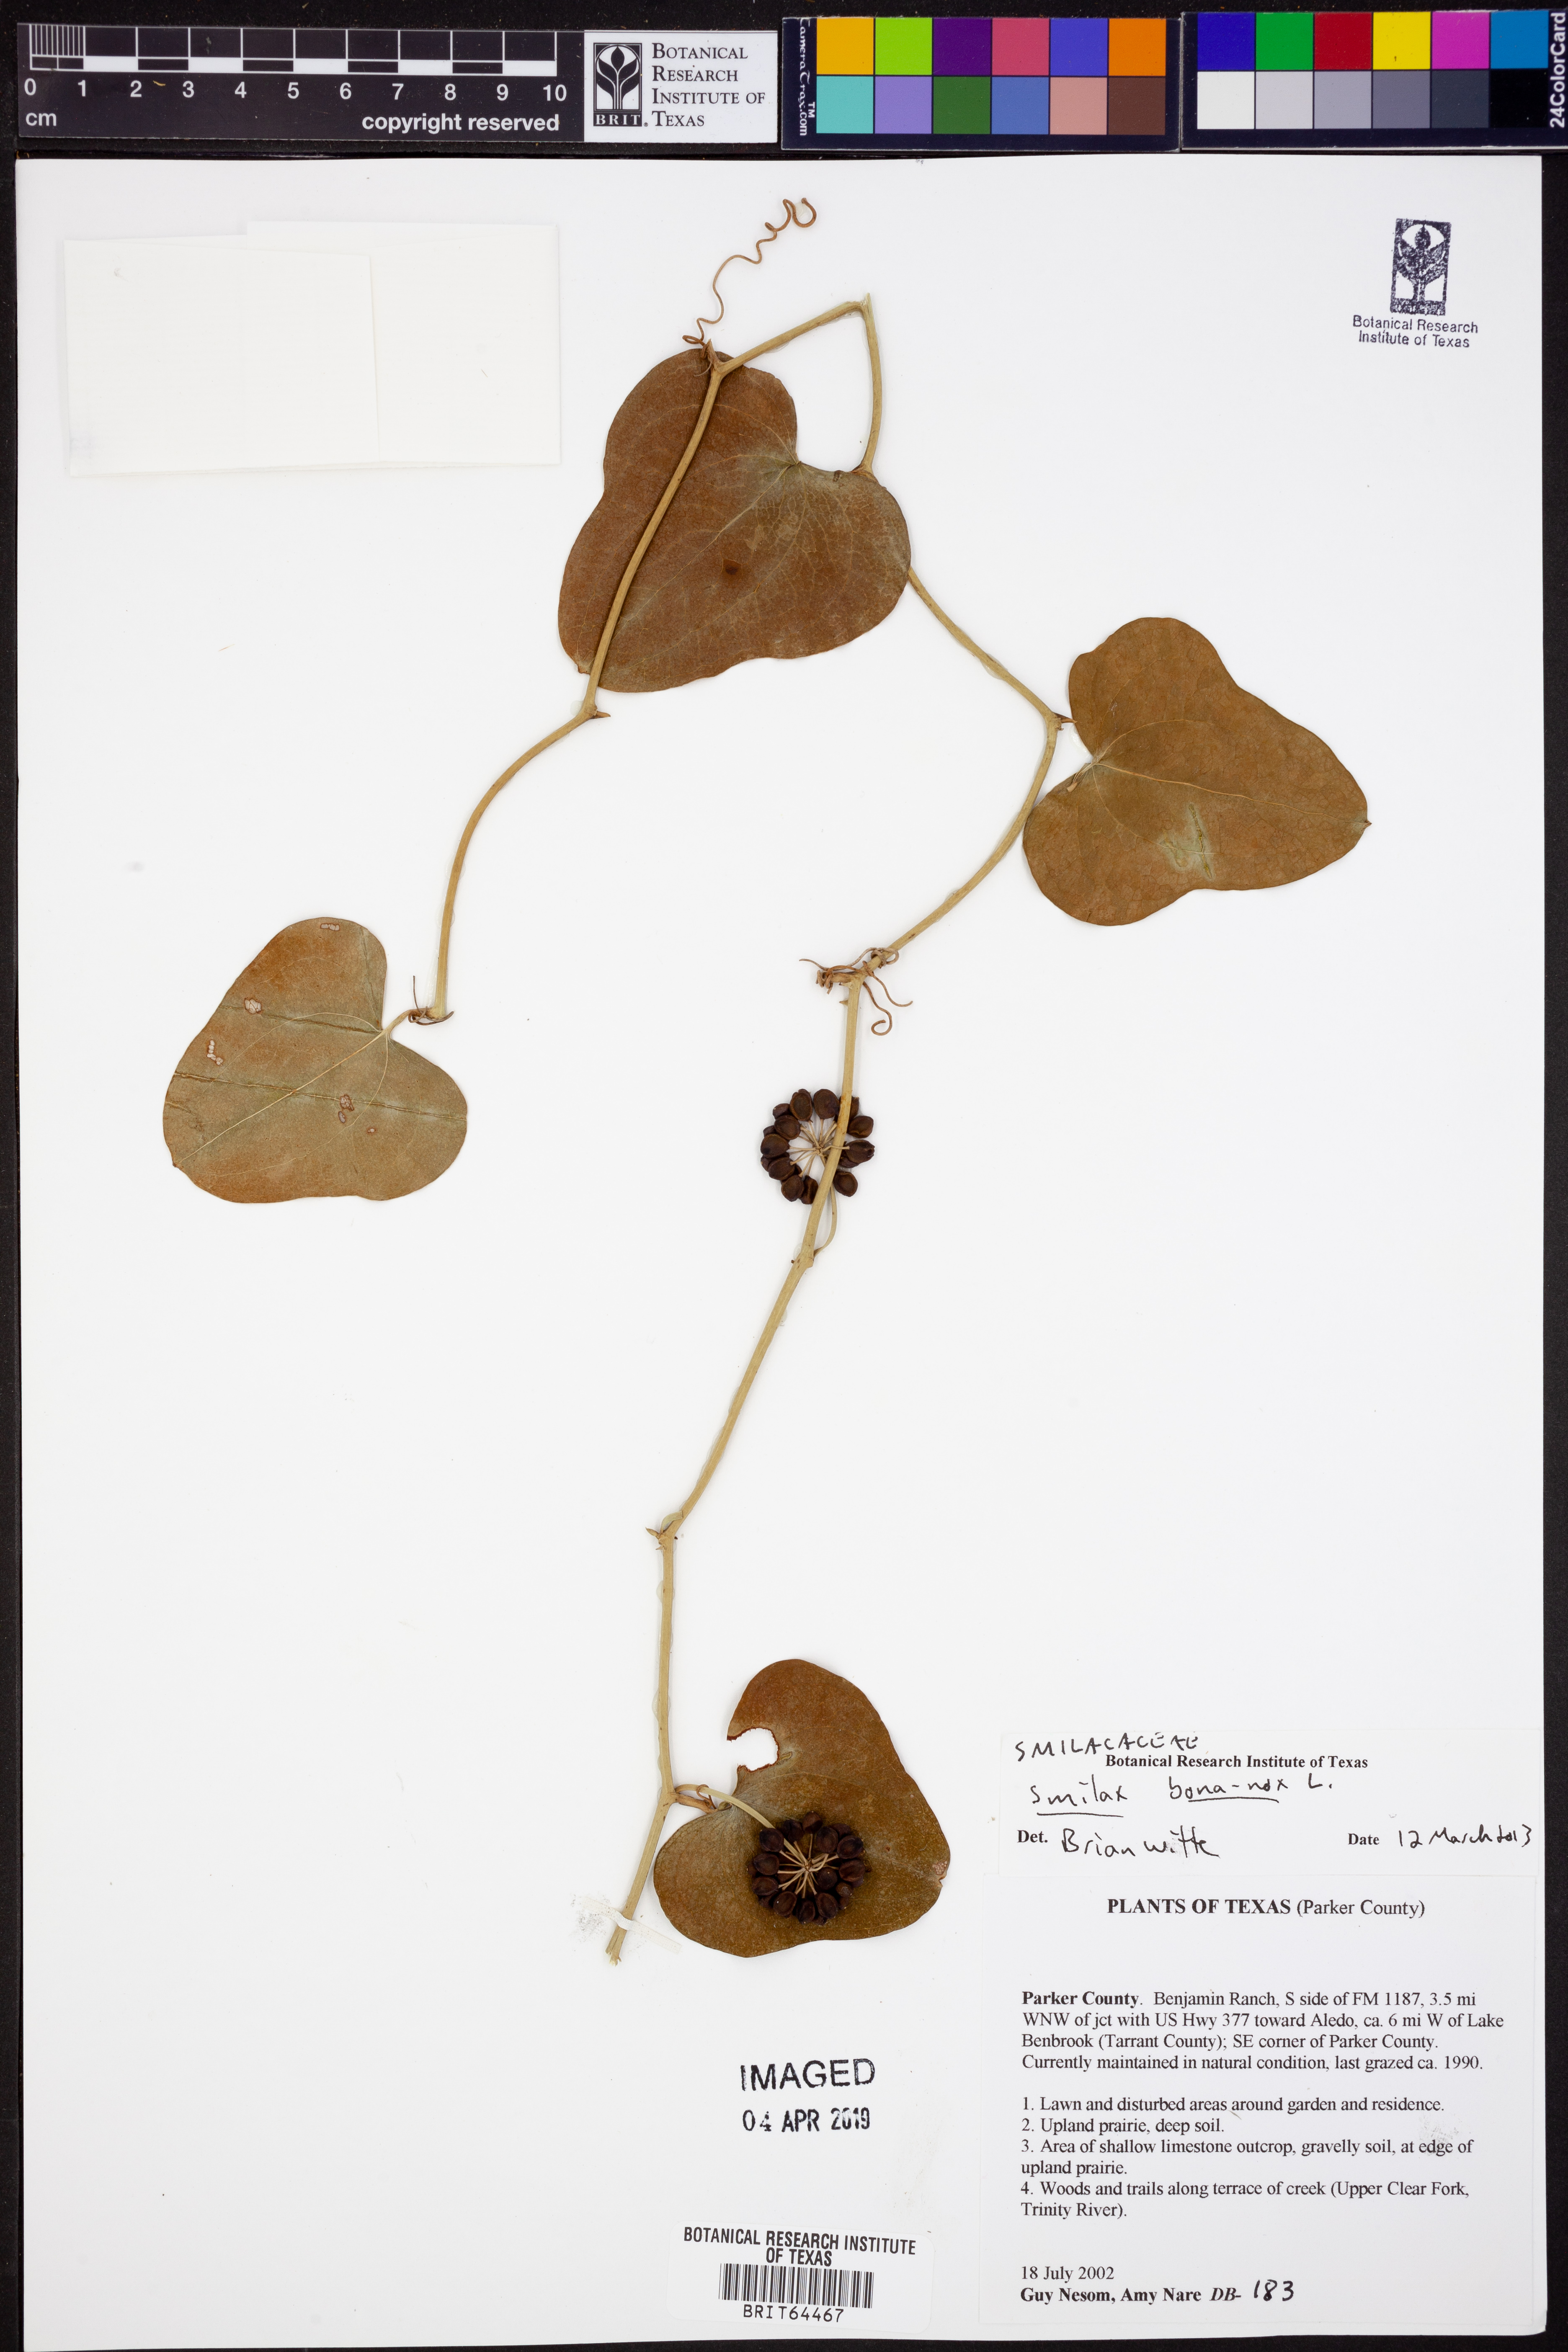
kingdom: Plantae
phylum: Tracheophyta
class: Liliopsida
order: Liliales
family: Smilacaceae
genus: Smilax
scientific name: Smilax bona-nox
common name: Catbrier
